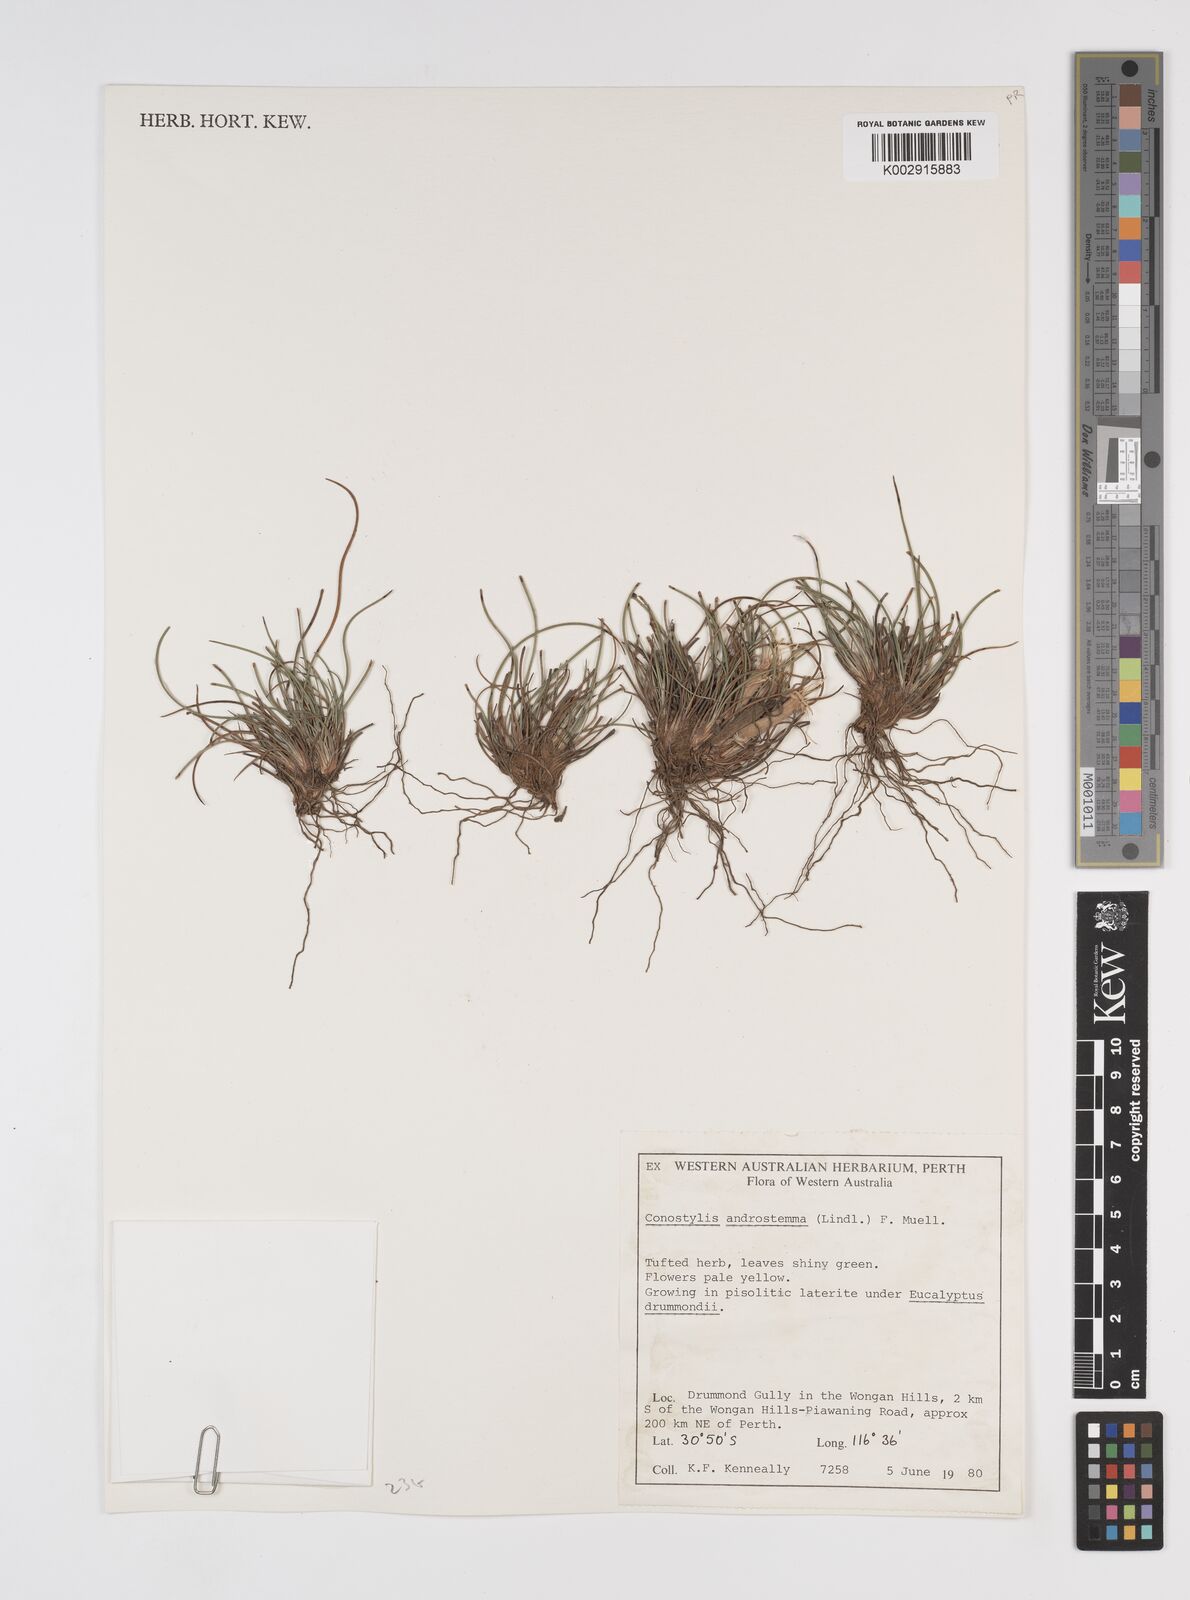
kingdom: Plantae
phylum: Tracheophyta
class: Liliopsida
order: Commelinales
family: Haemodoraceae
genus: Conostylis
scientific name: Conostylis androstemma
